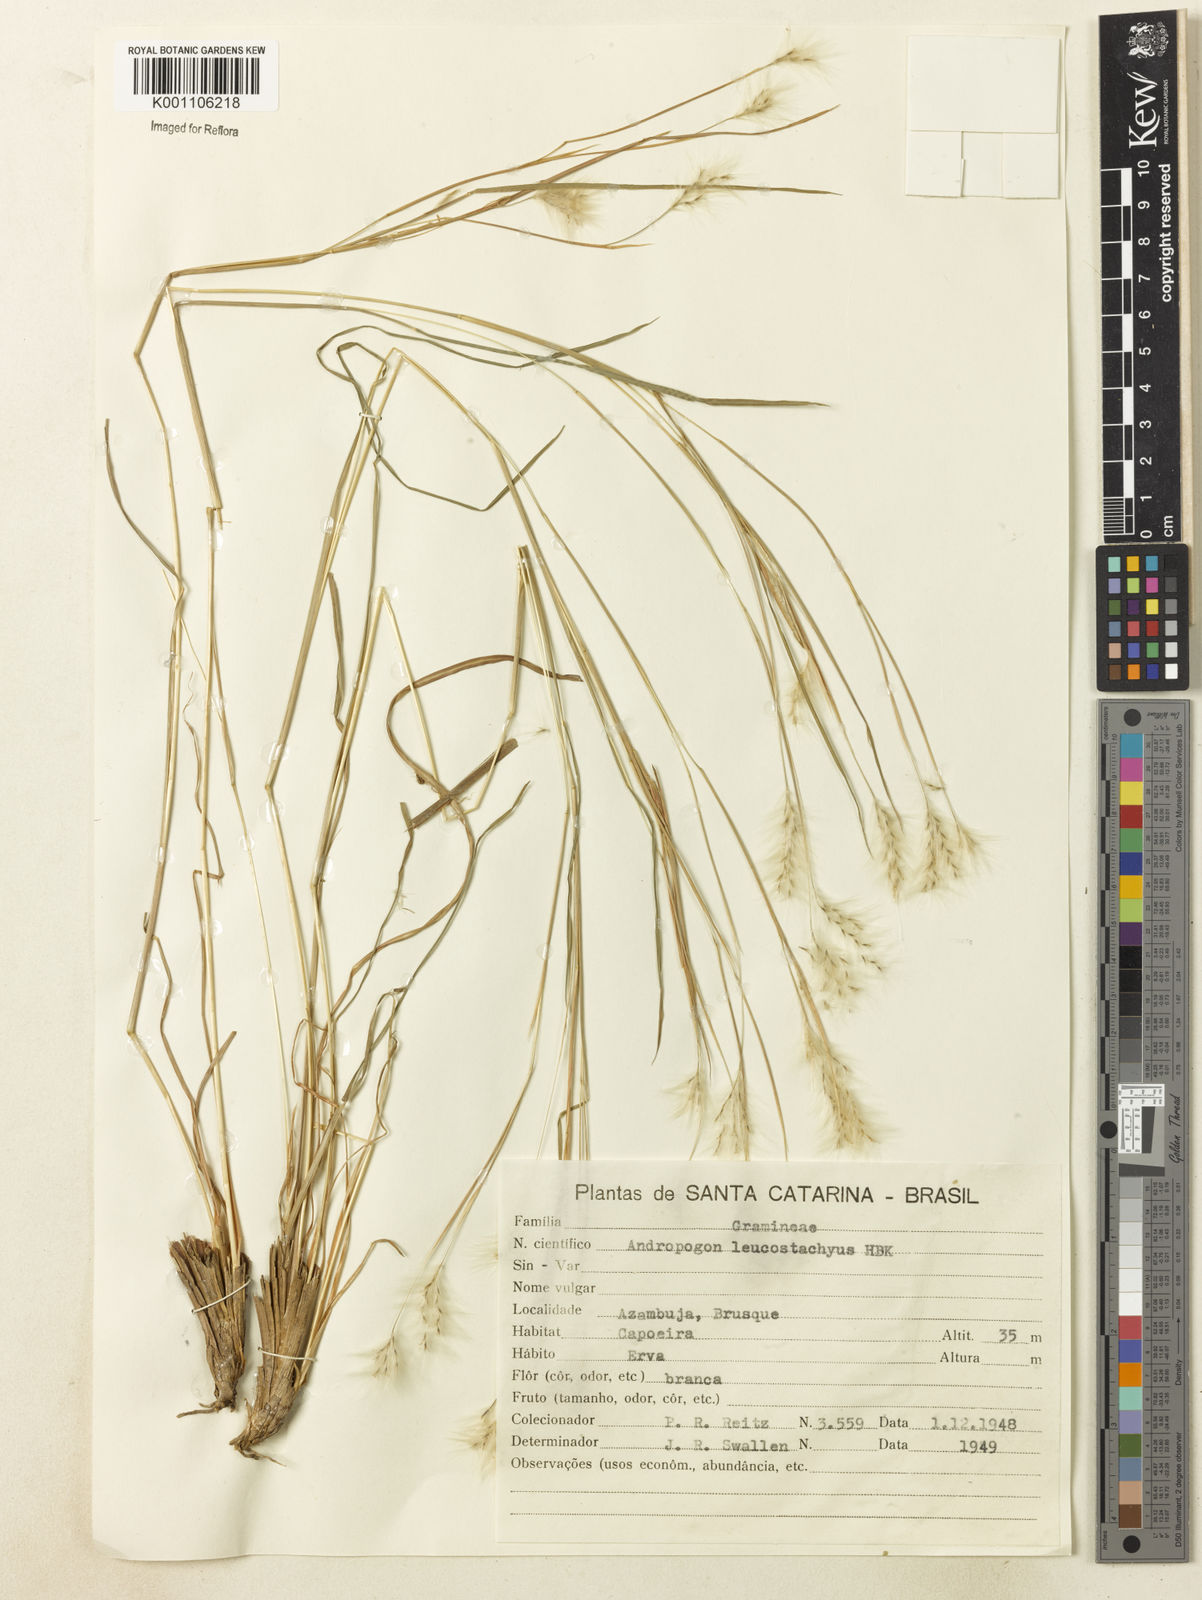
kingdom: Plantae
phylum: Tracheophyta
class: Liliopsida
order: Poales
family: Poaceae
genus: Andropogon
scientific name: Andropogon leucostachyus
